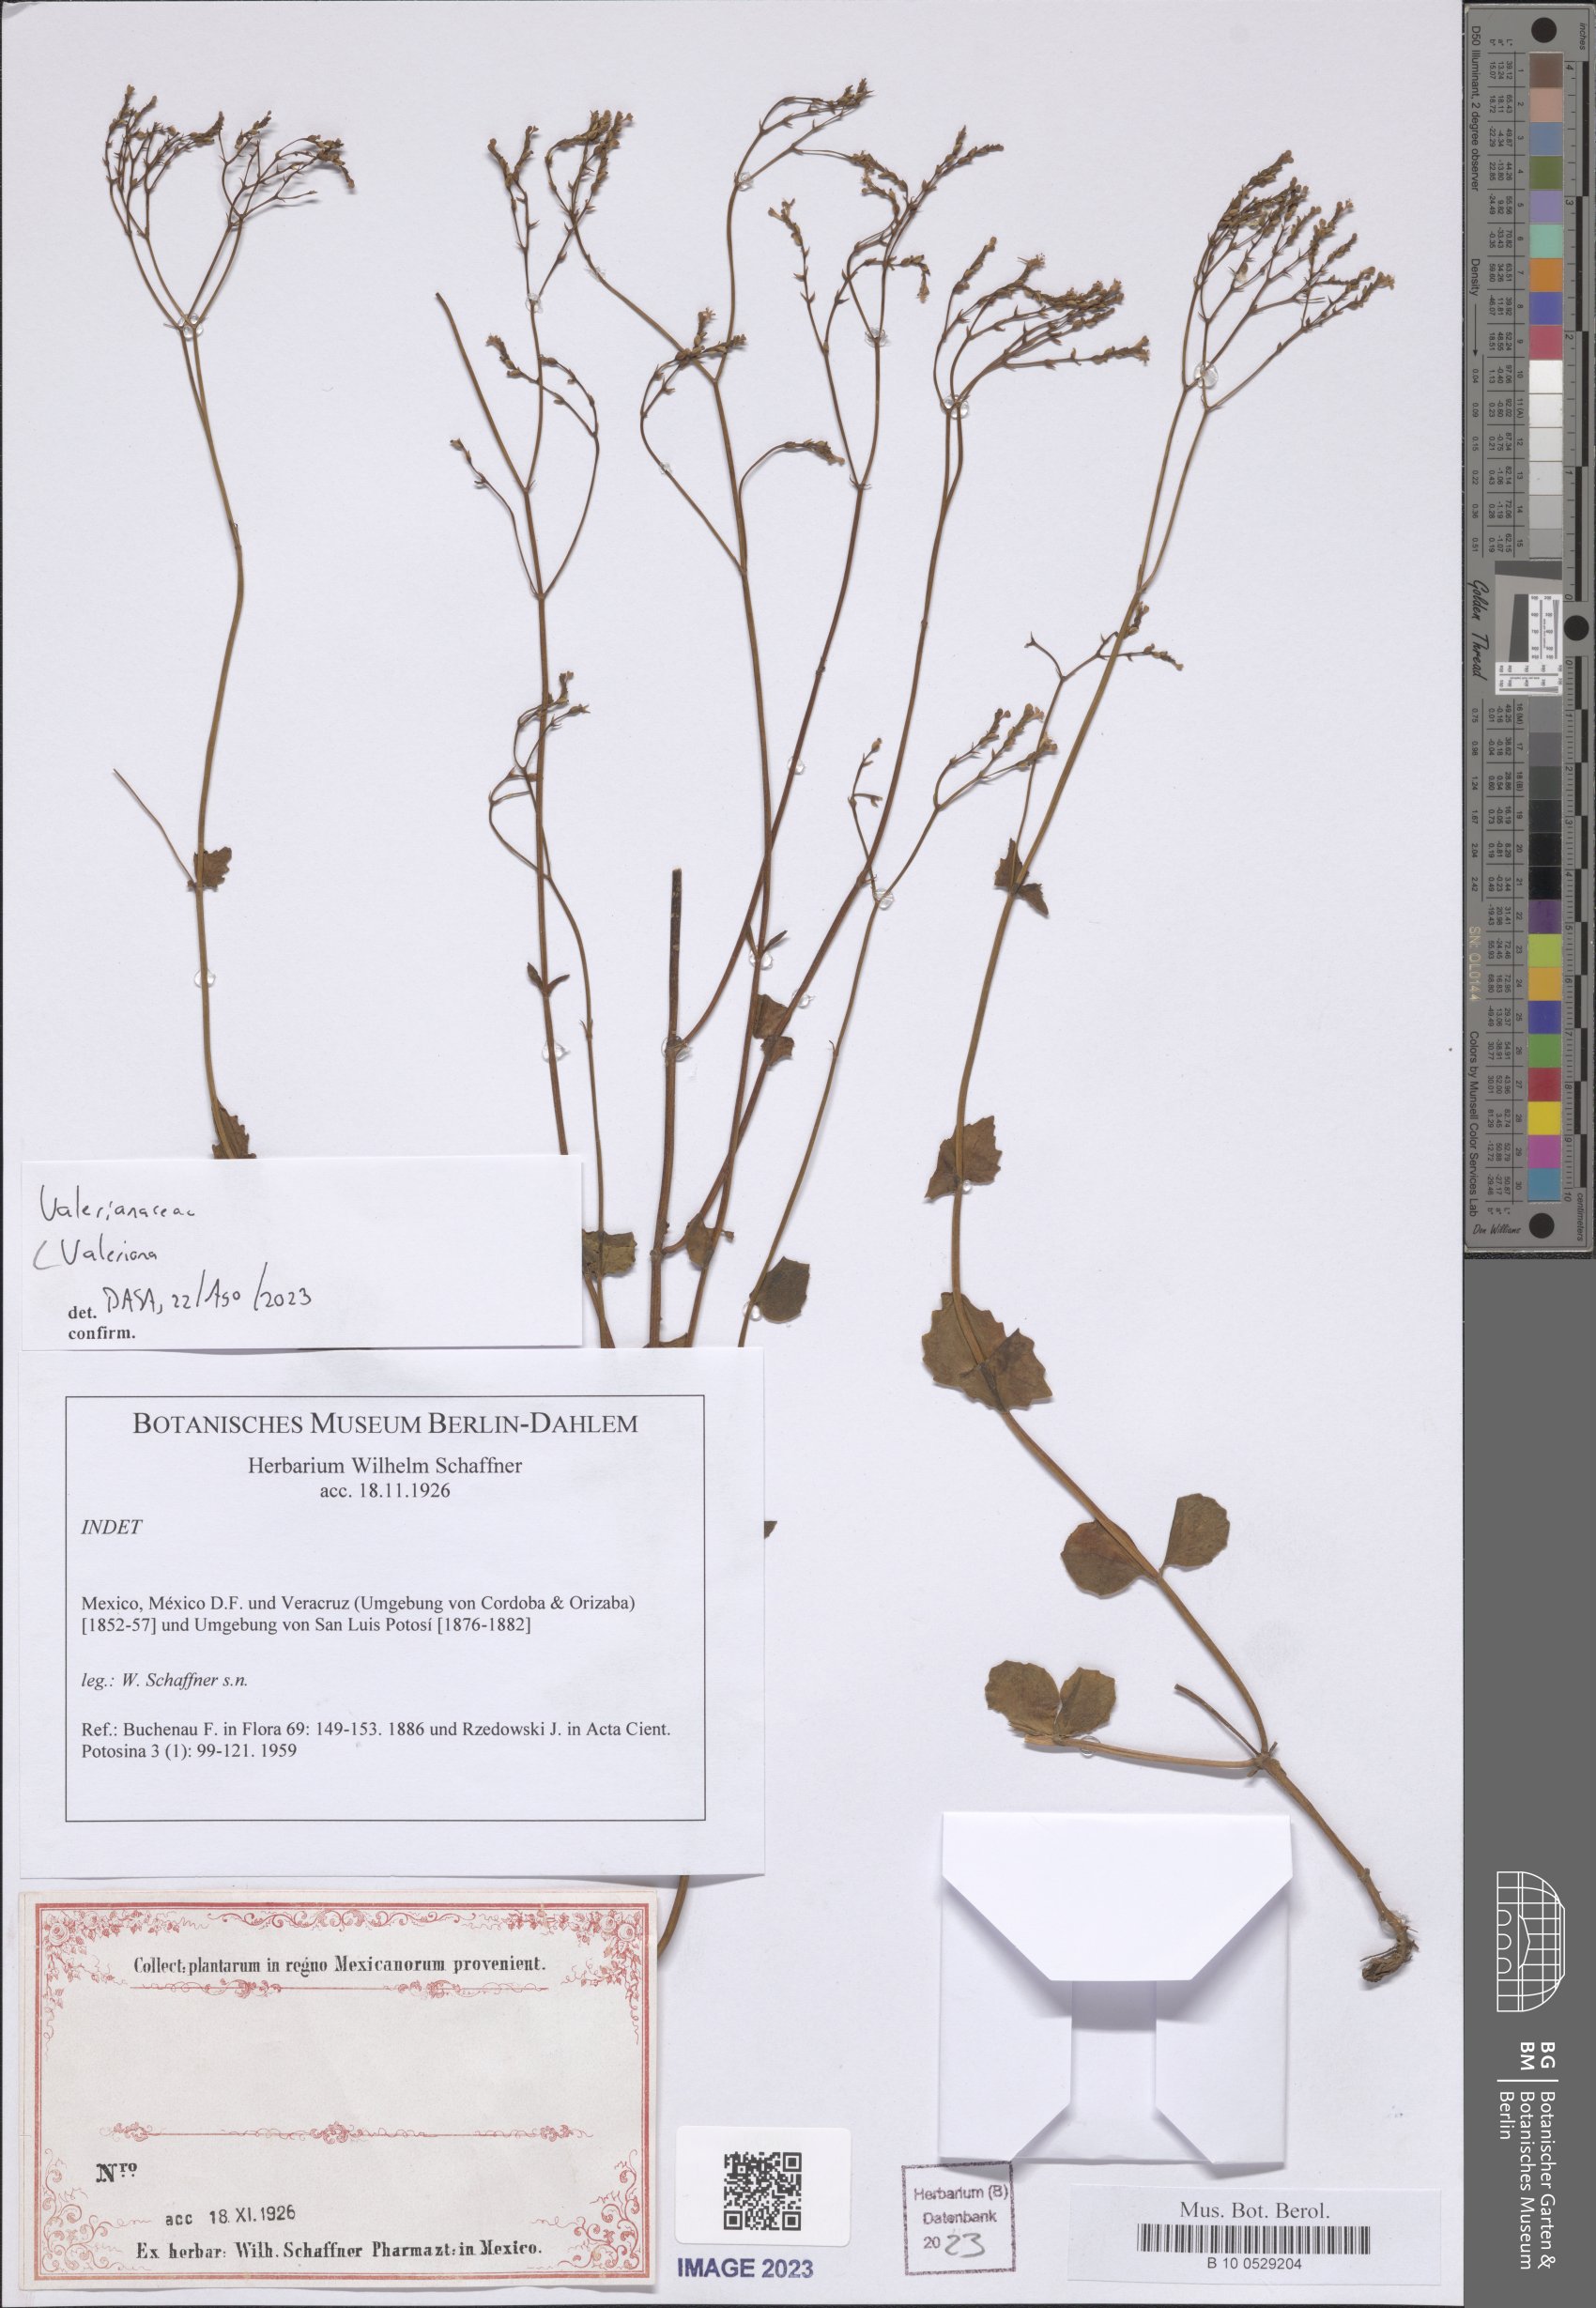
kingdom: Plantae
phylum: Tracheophyta
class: Magnoliopsida
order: Dipsacales
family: Caprifoliaceae
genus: Valeriana
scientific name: Valeriana
